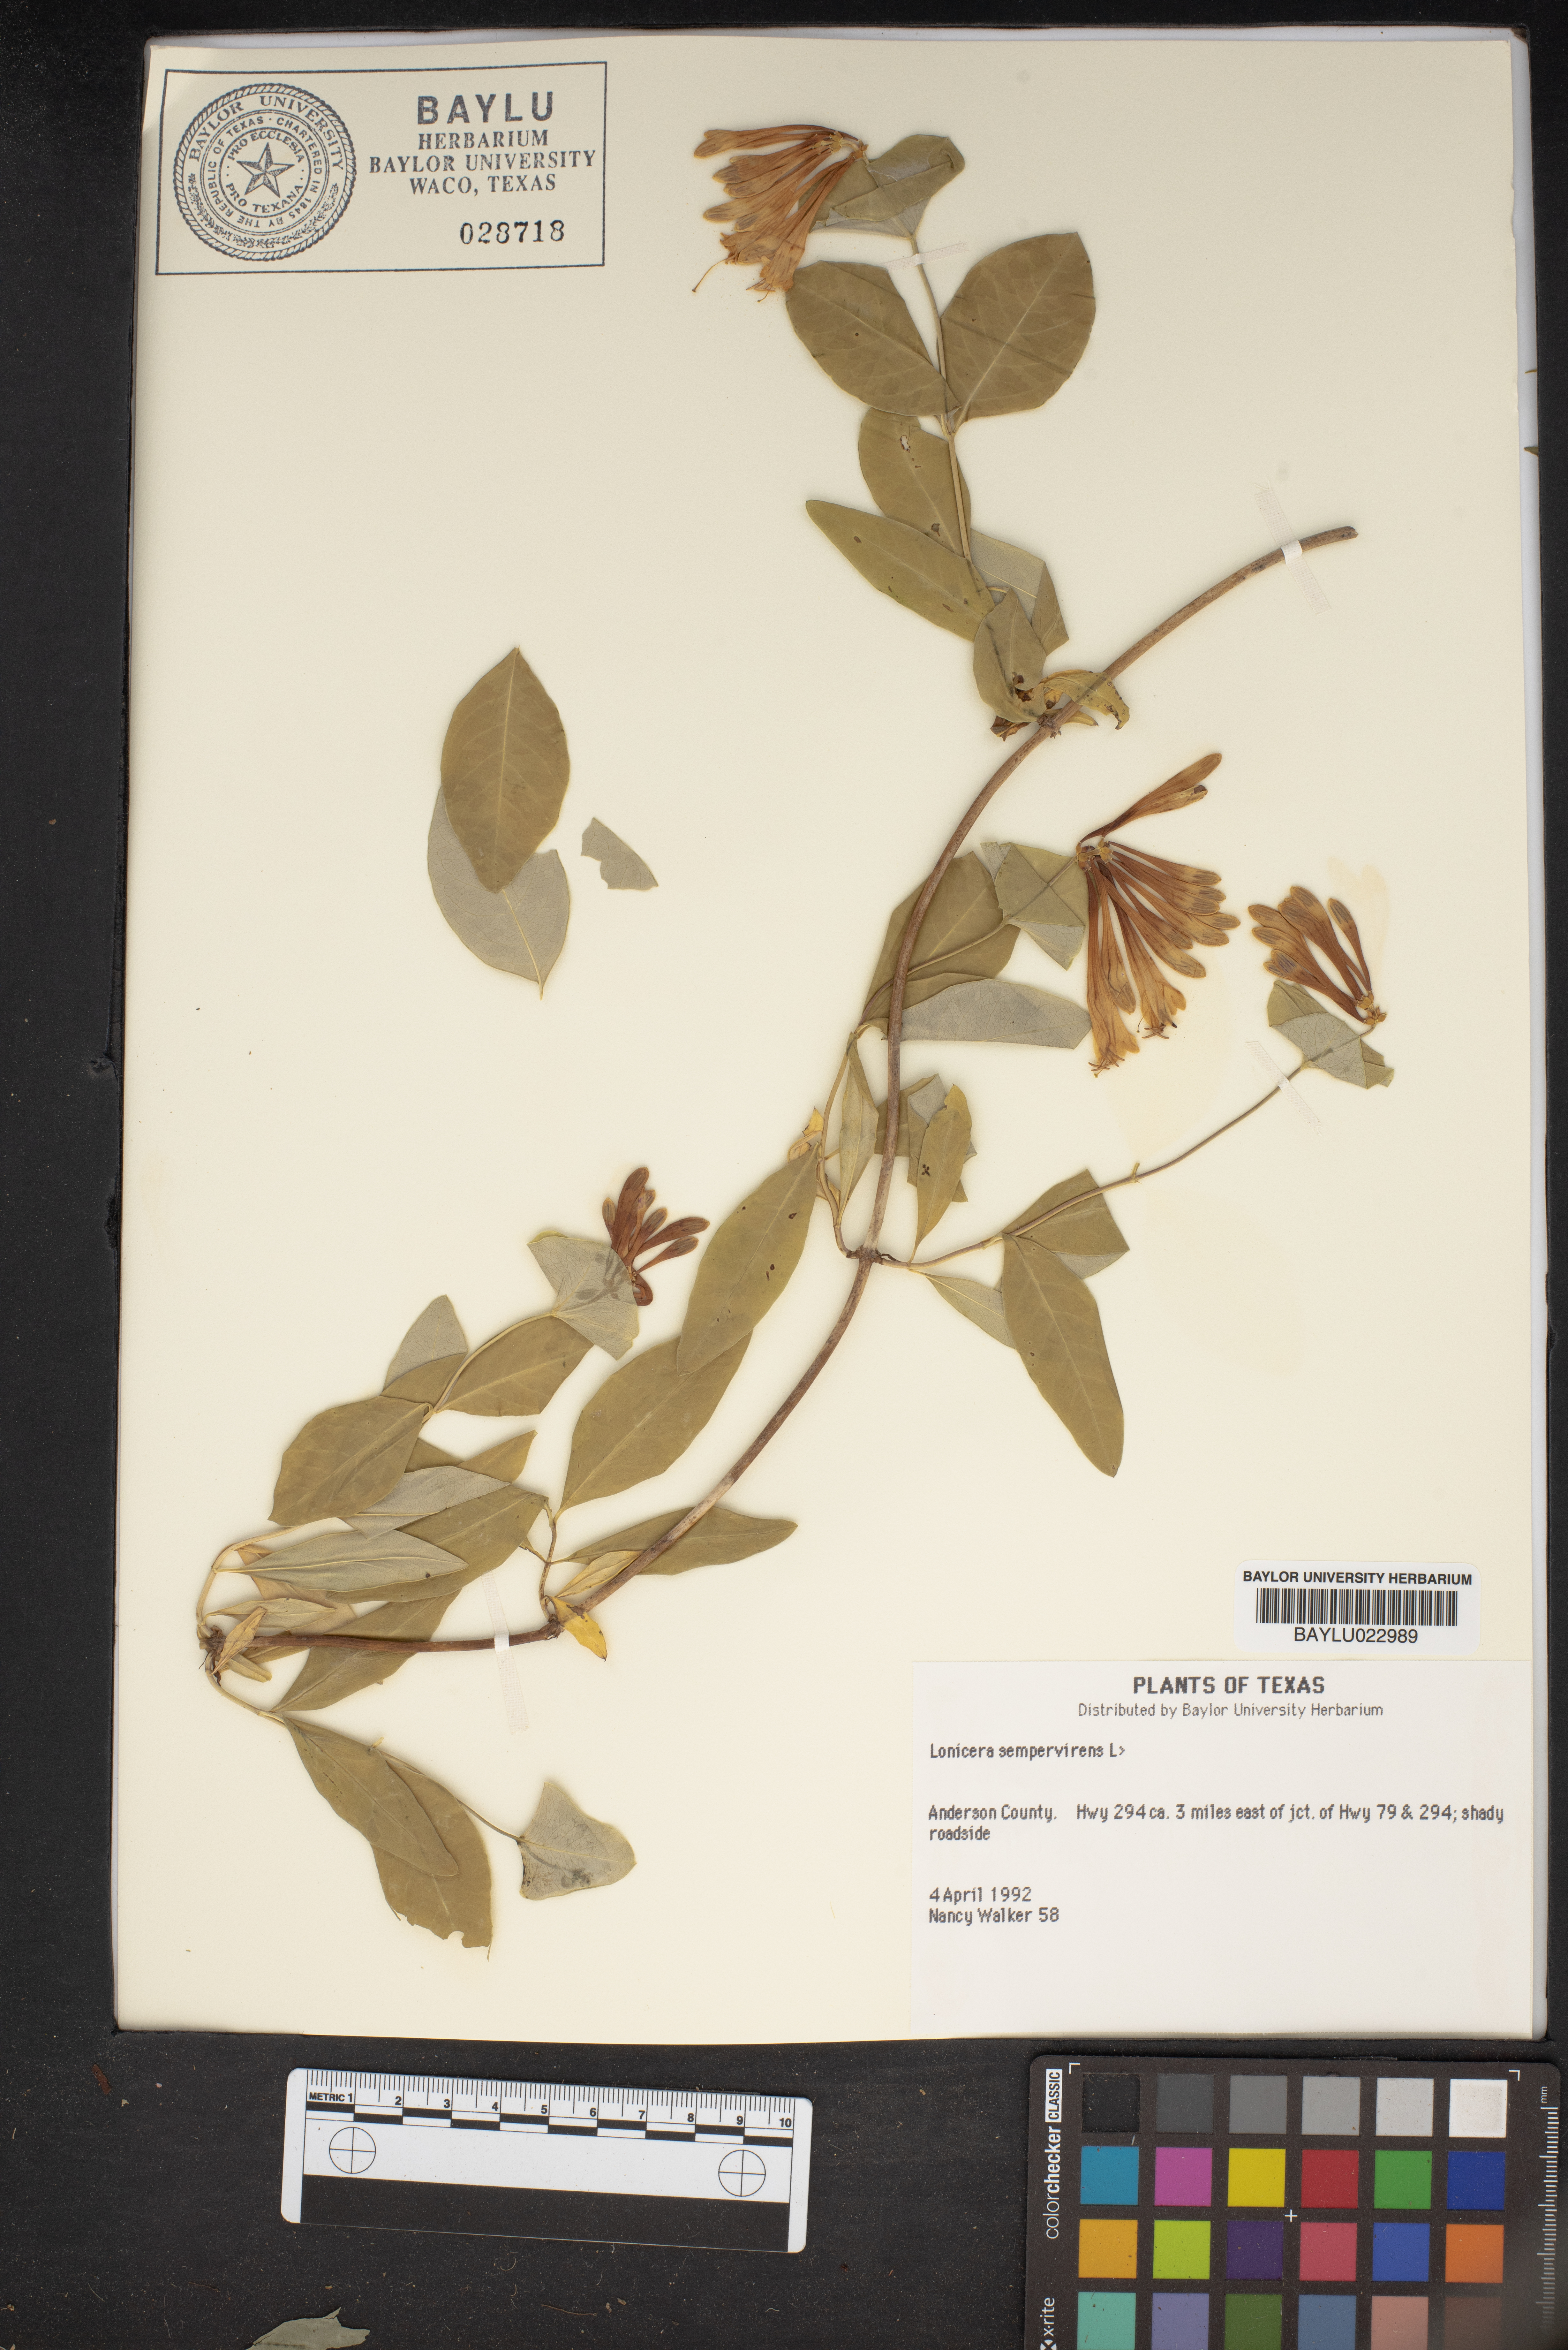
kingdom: Plantae
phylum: Tracheophyta
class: Magnoliopsida
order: Dipsacales
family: Caprifoliaceae
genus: Lonicera
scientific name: Lonicera sempervirens
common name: Coral honeysuckle
